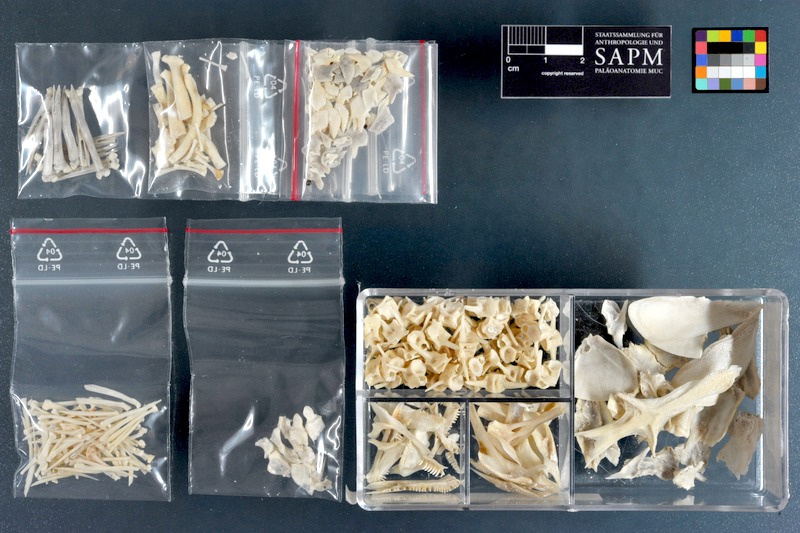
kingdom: Animalia
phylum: Chordata
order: Polypteriformes
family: Polypteridae
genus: Polypterus
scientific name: Polypterus
